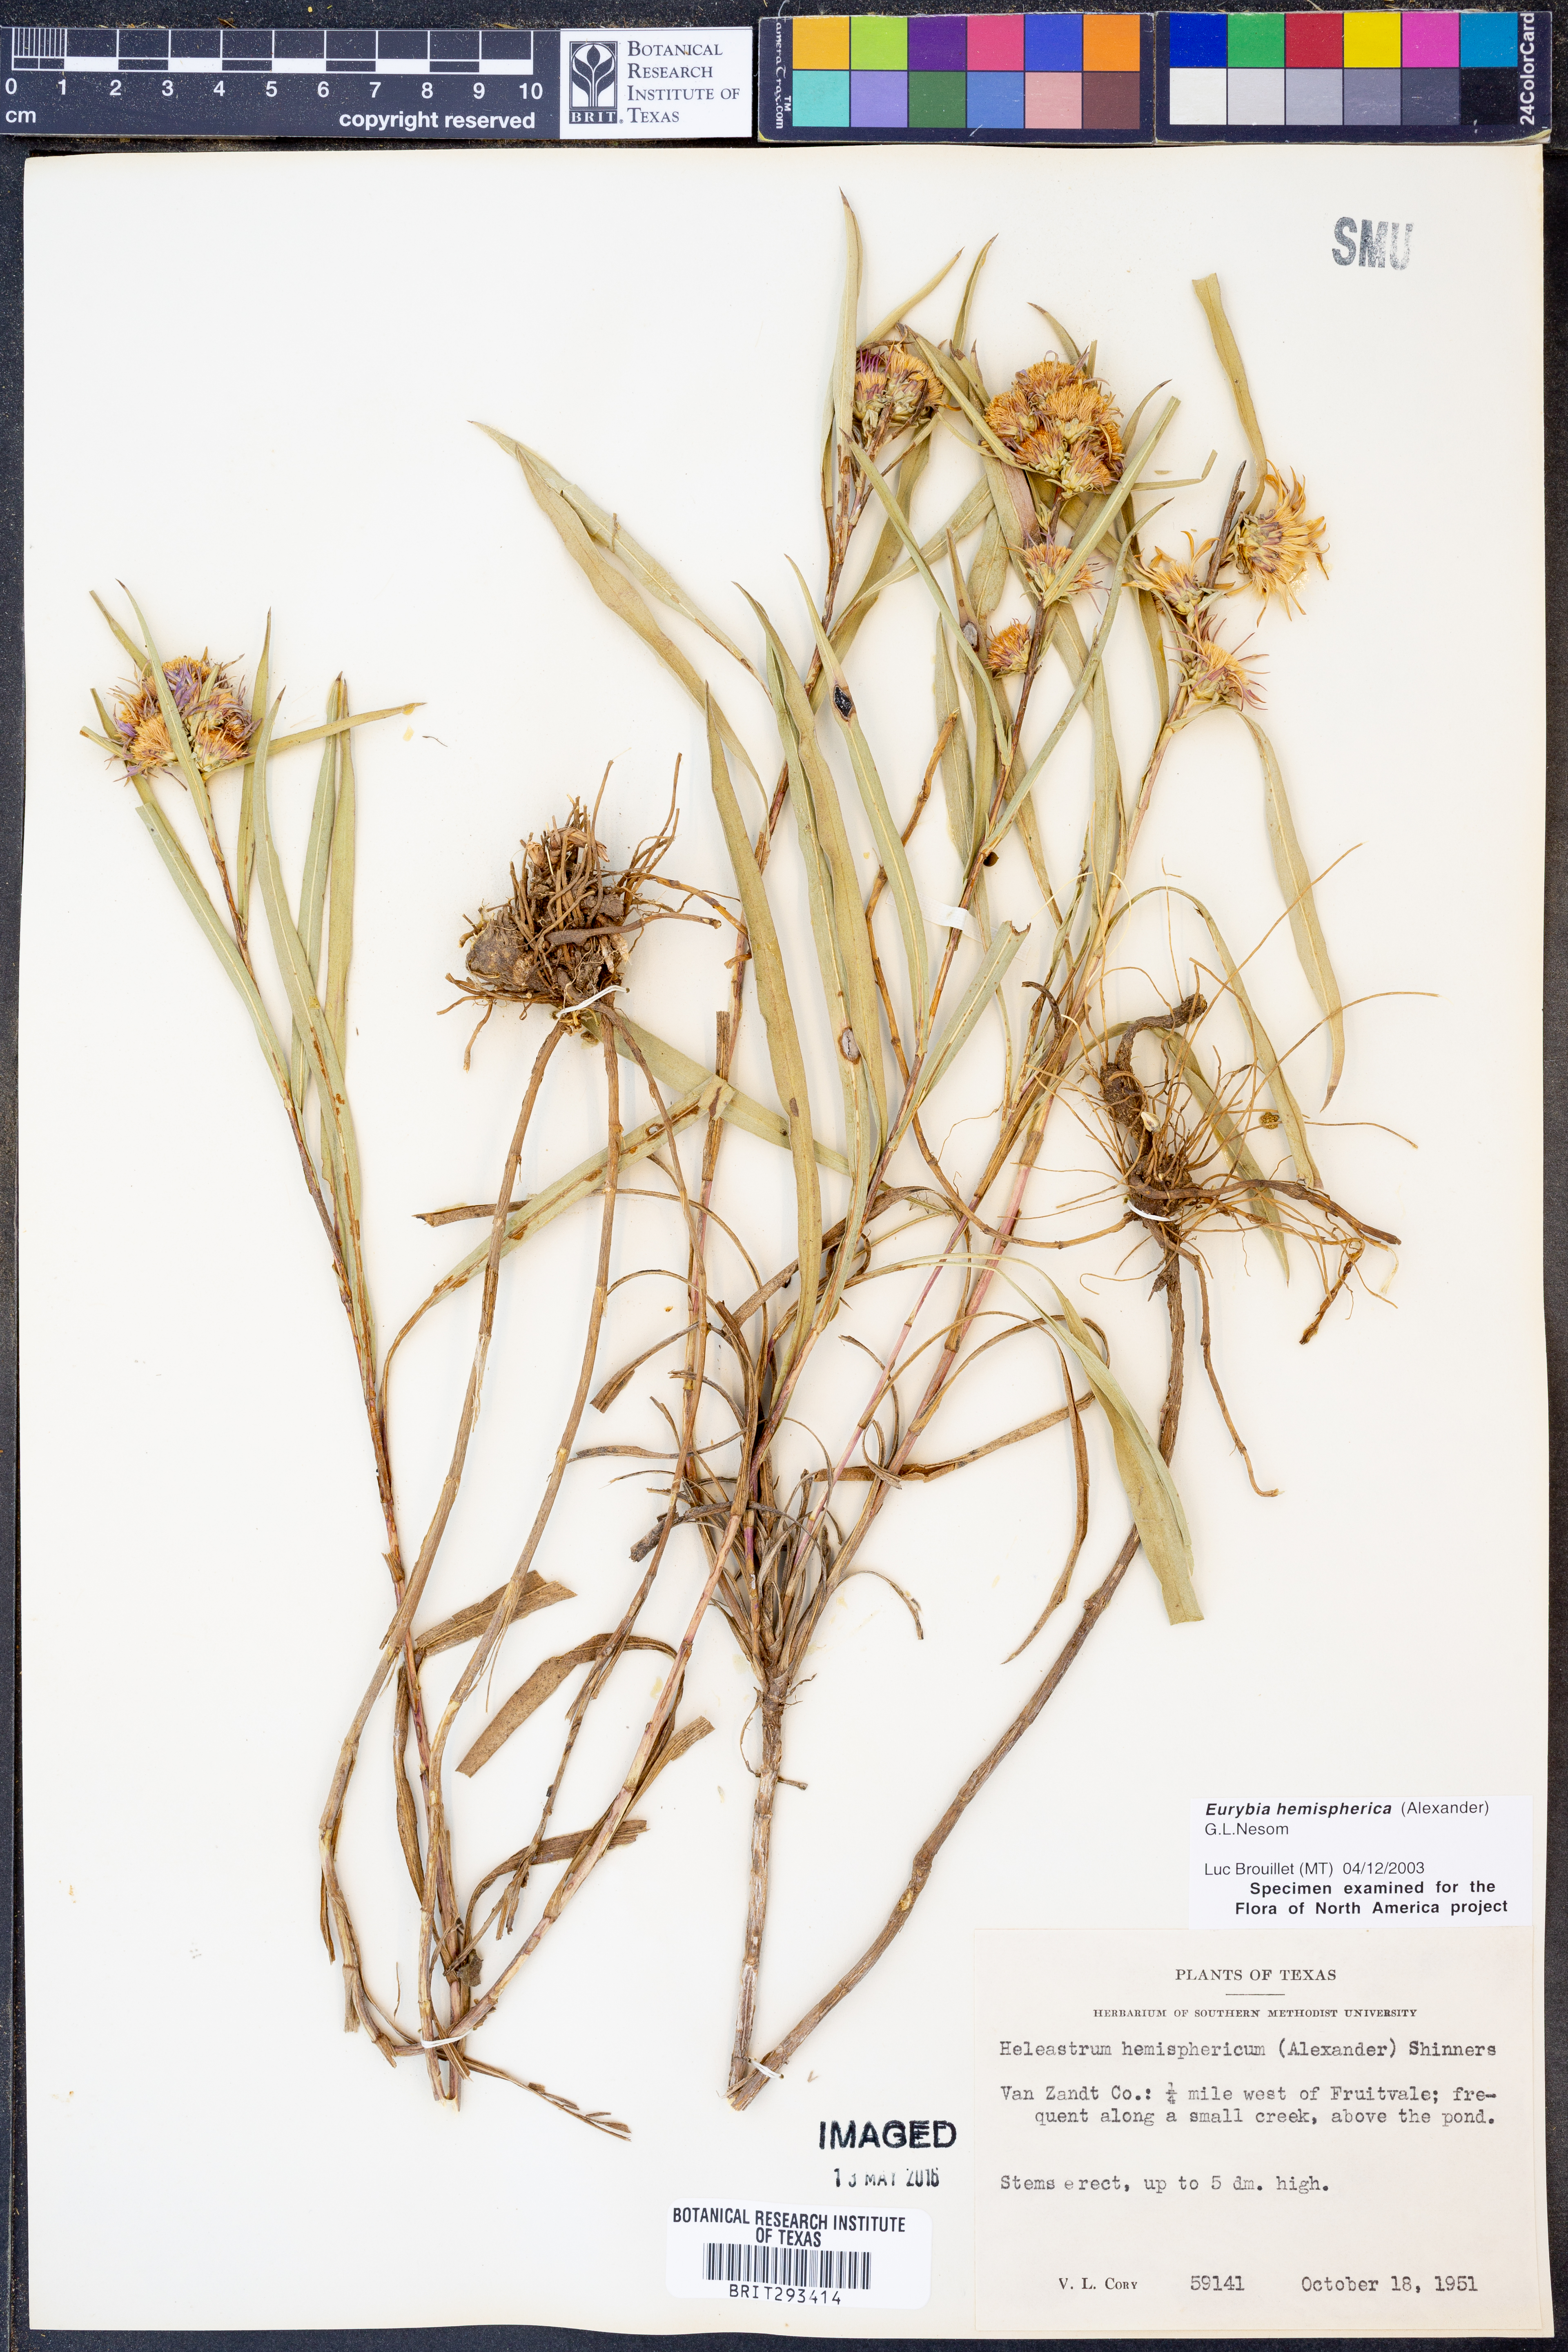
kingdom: Plantae
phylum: Tracheophyta
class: Magnoliopsida
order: Asterales
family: Asteraceae
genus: Eurybia
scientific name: Eurybia hemispherica
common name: Showy aster
